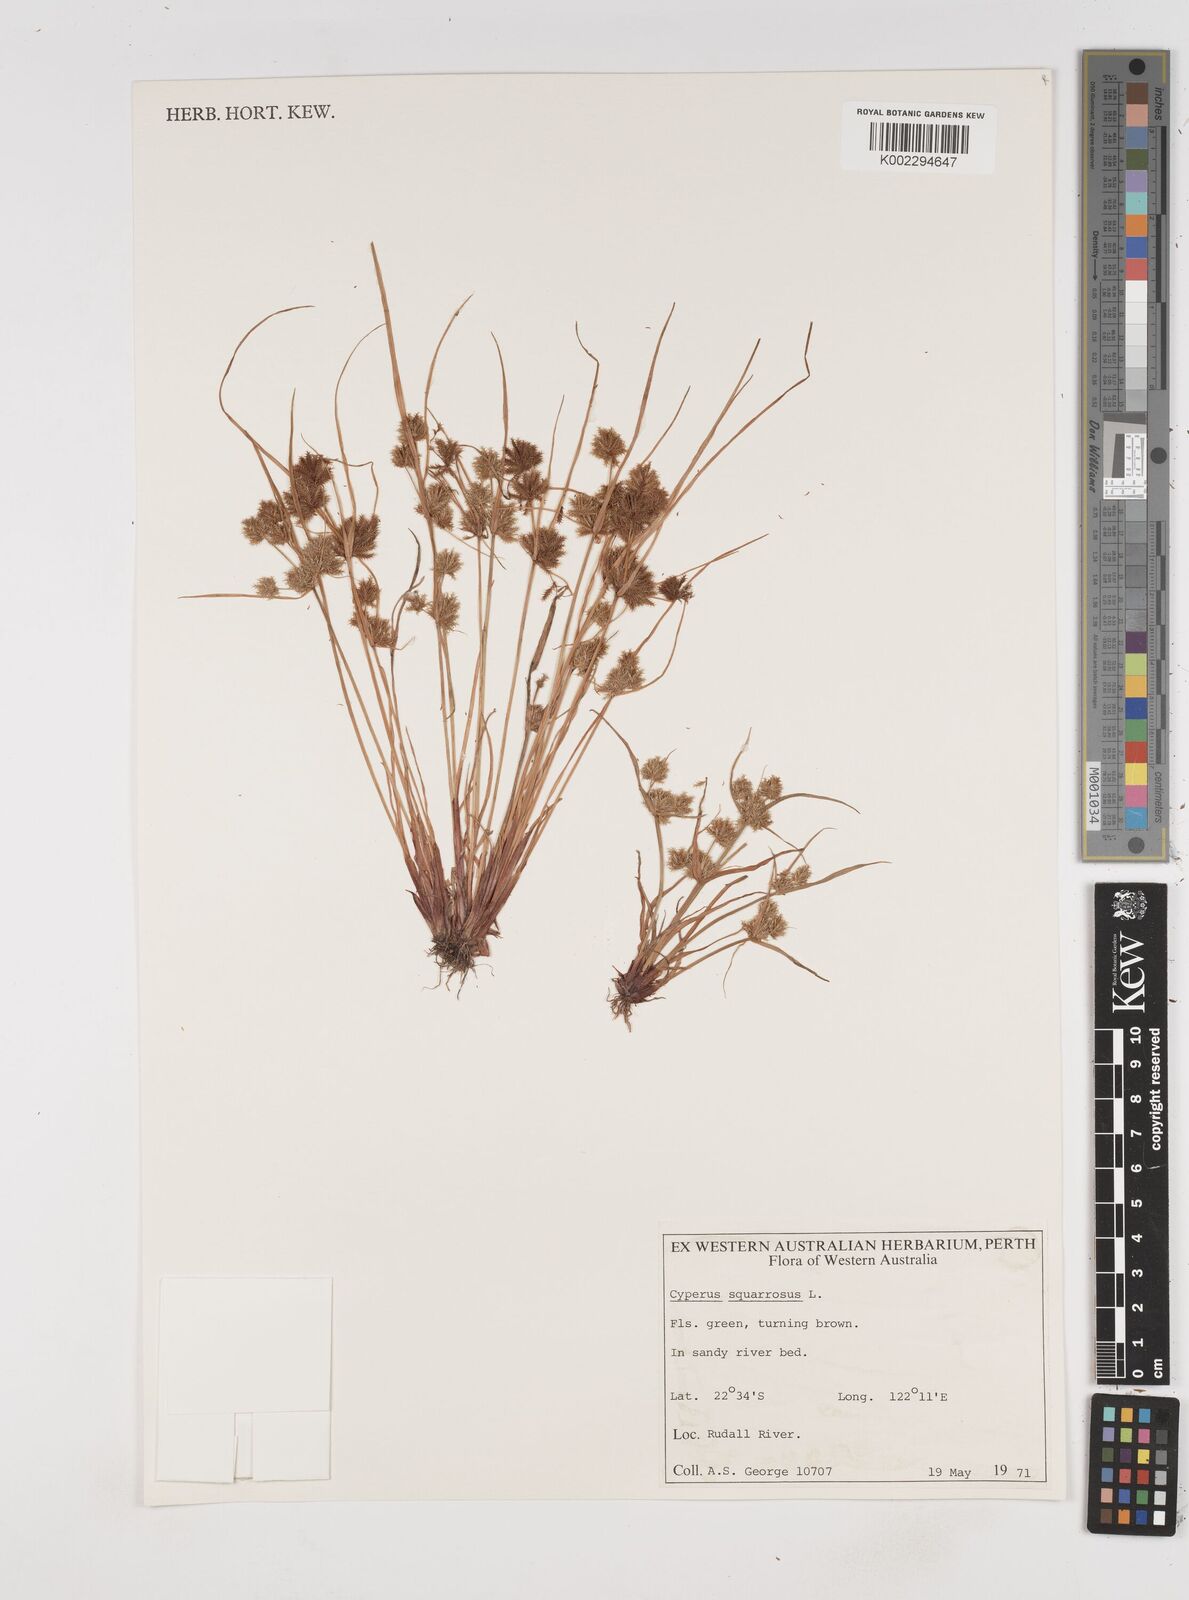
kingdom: Plantae
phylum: Tracheophyta
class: Liliopsida
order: Poales
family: Cyperaceae
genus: Cyperus
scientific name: Cyperus squarrosus
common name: Awned cyperus
